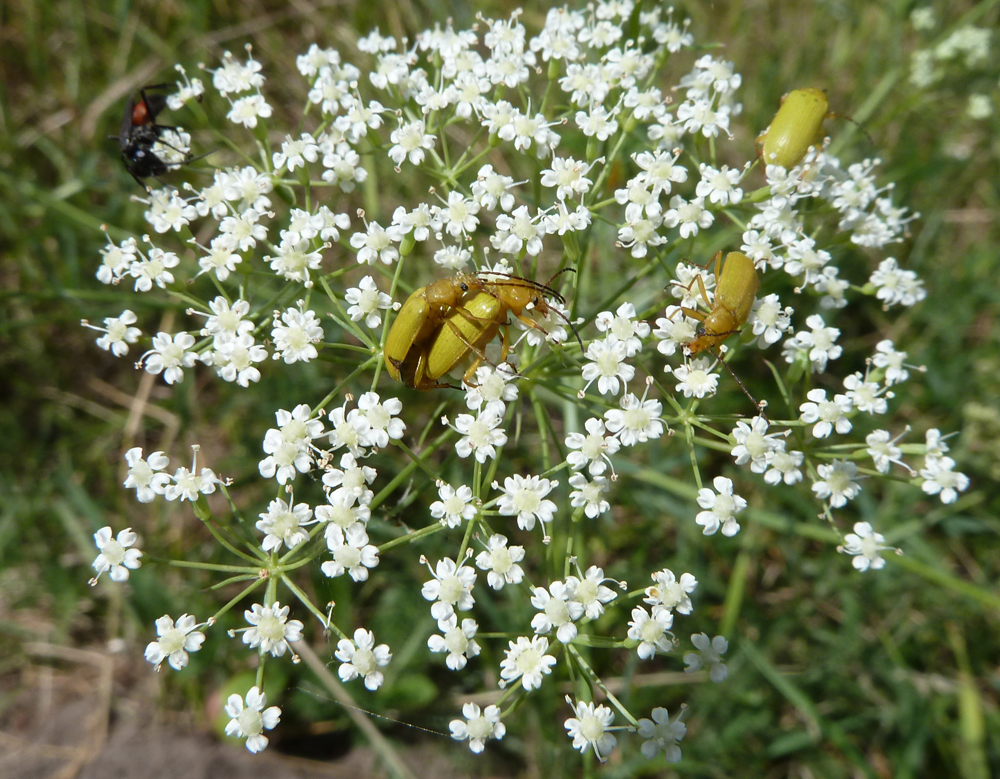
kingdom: Plantae
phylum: Tracheophyta
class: Magnoliopsida
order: Apiales
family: Apiaceae
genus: Falcaria
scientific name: Falcaria vulgaris
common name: Longleaf
